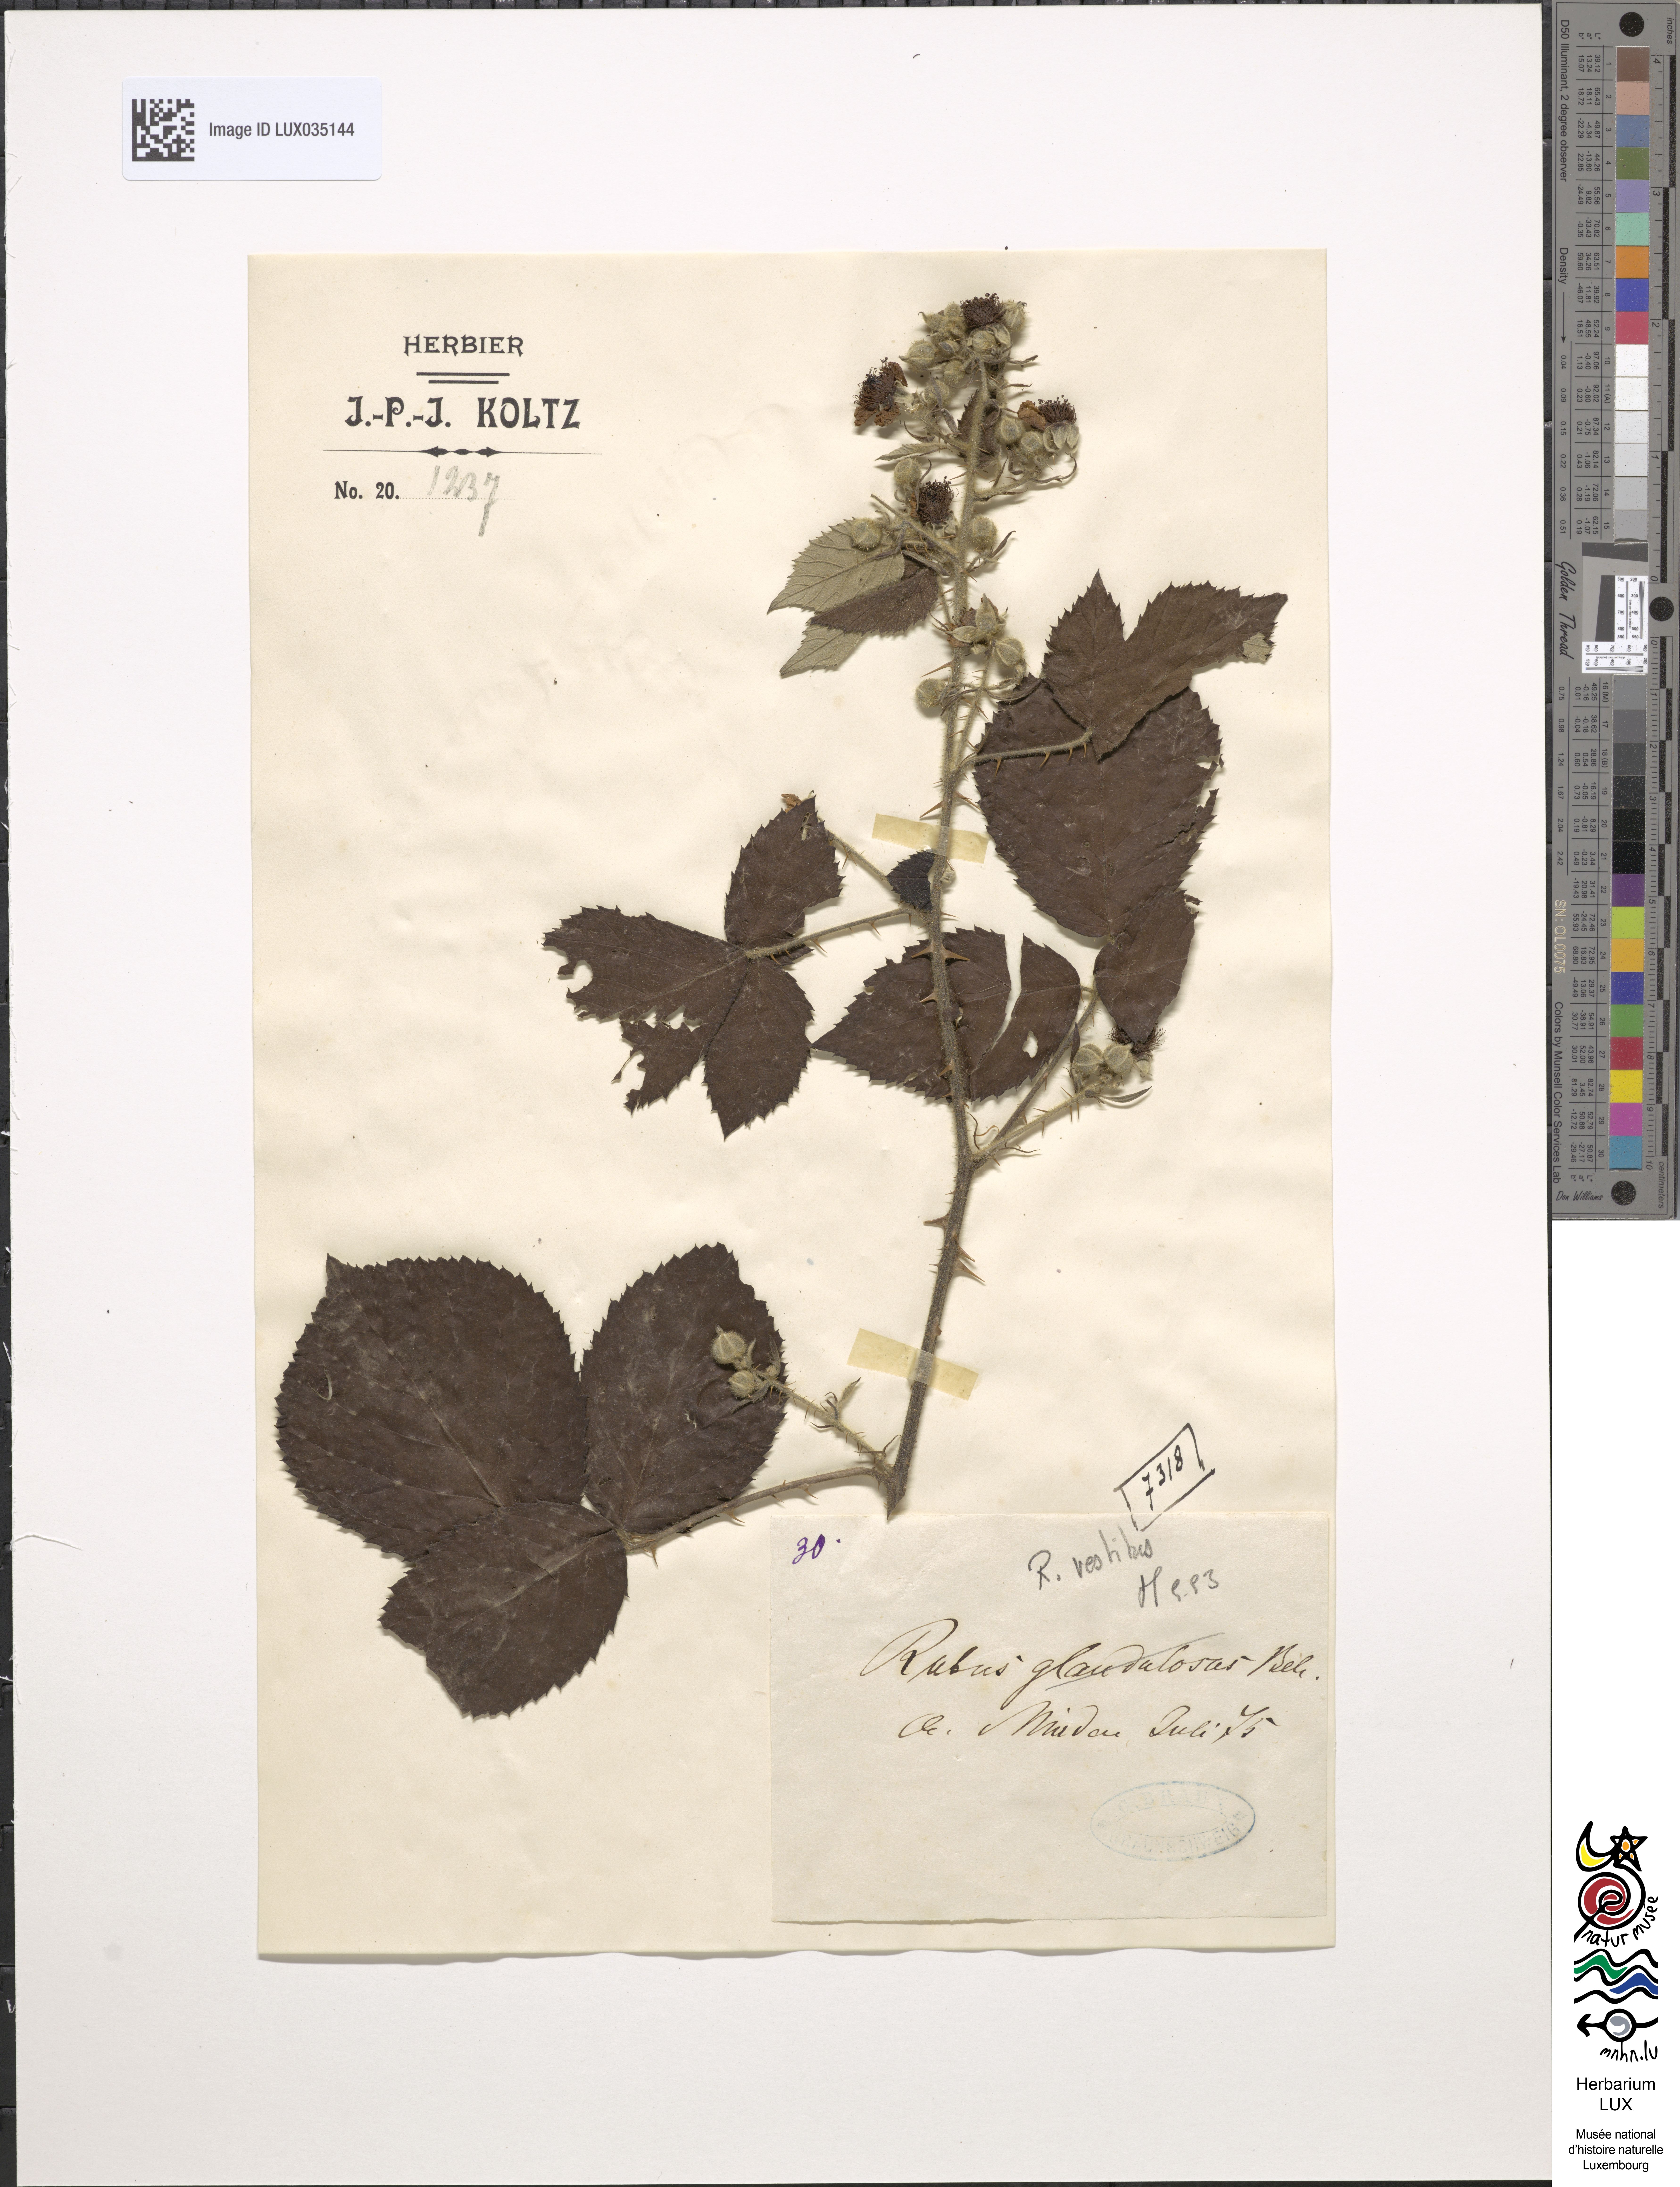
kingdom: Plantae
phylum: Tracheophyta
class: Magnoliopsida
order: Rosales
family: Rosaceae
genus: Rubus
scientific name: Rubus hirtus
